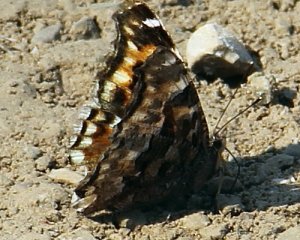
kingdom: Animalia
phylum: Arthropoda
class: Insecta
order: Lepidoptera
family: Nymphalidae
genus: Polygonia
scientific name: Polygonia vaualbum
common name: Compton Tortoiseshell
